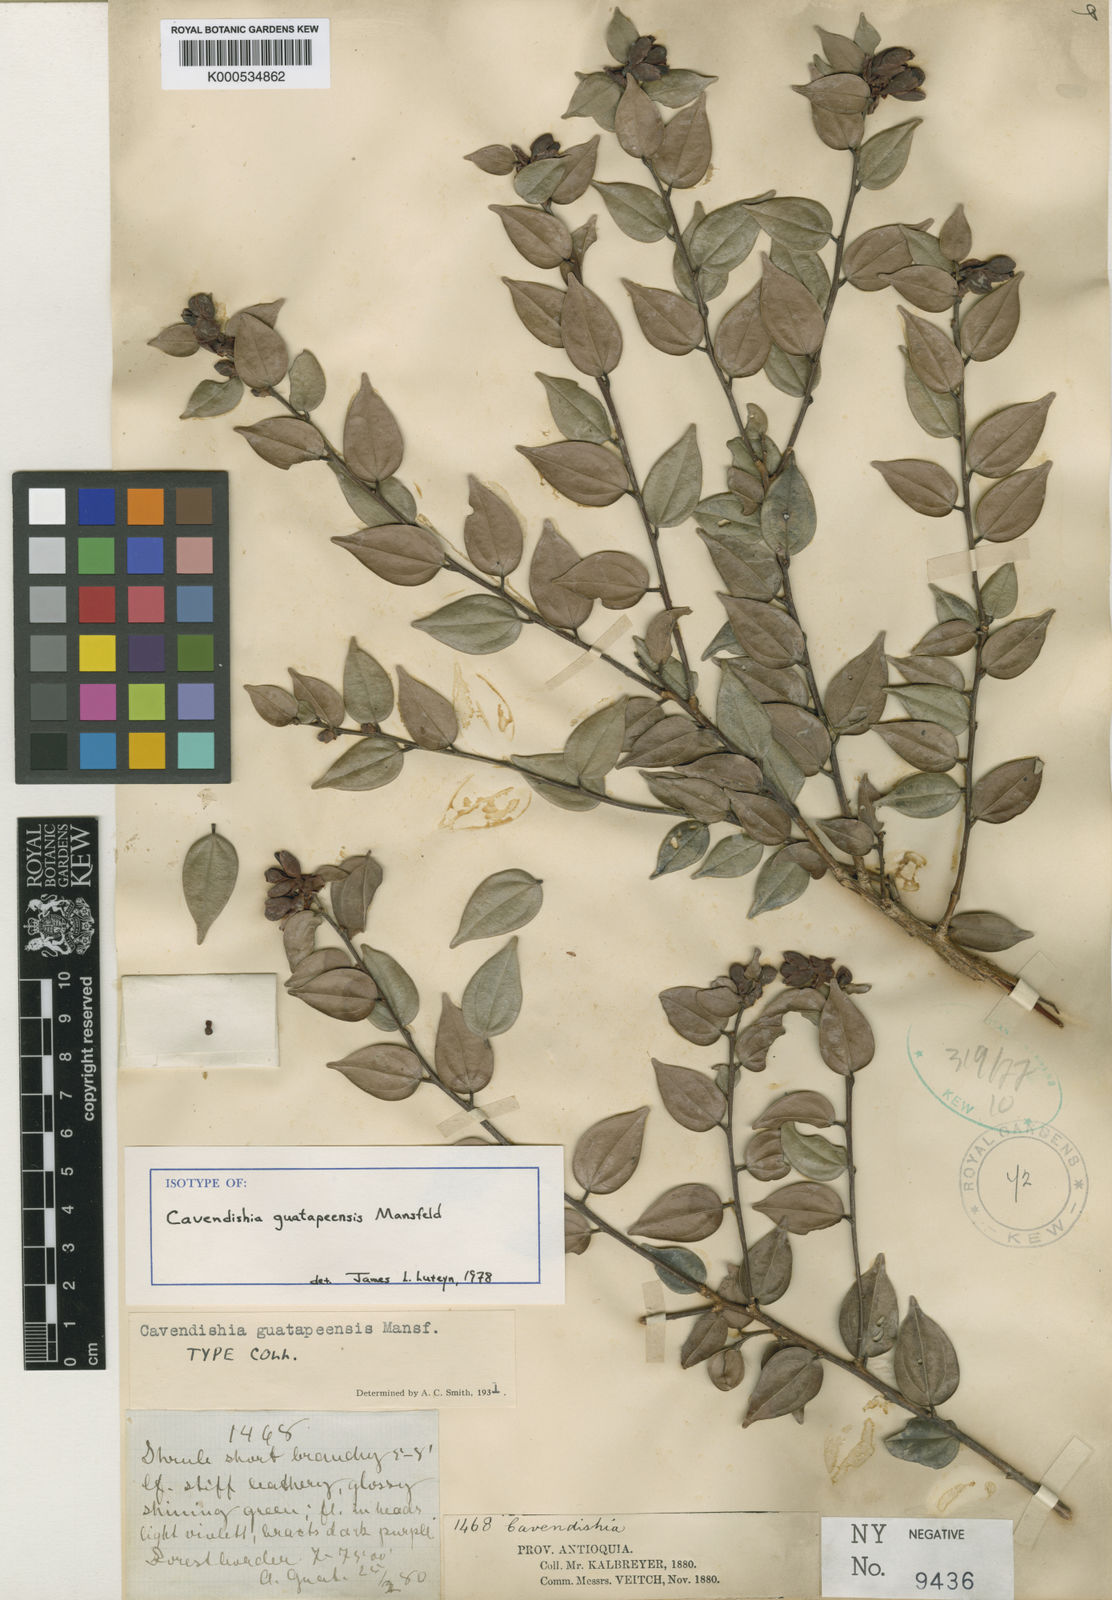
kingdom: Plantae
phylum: Tracheophyta
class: Magnoliopsida
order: Ericales
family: Ericaceae
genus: Cavendishia
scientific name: Cavendishia guatapeensis
